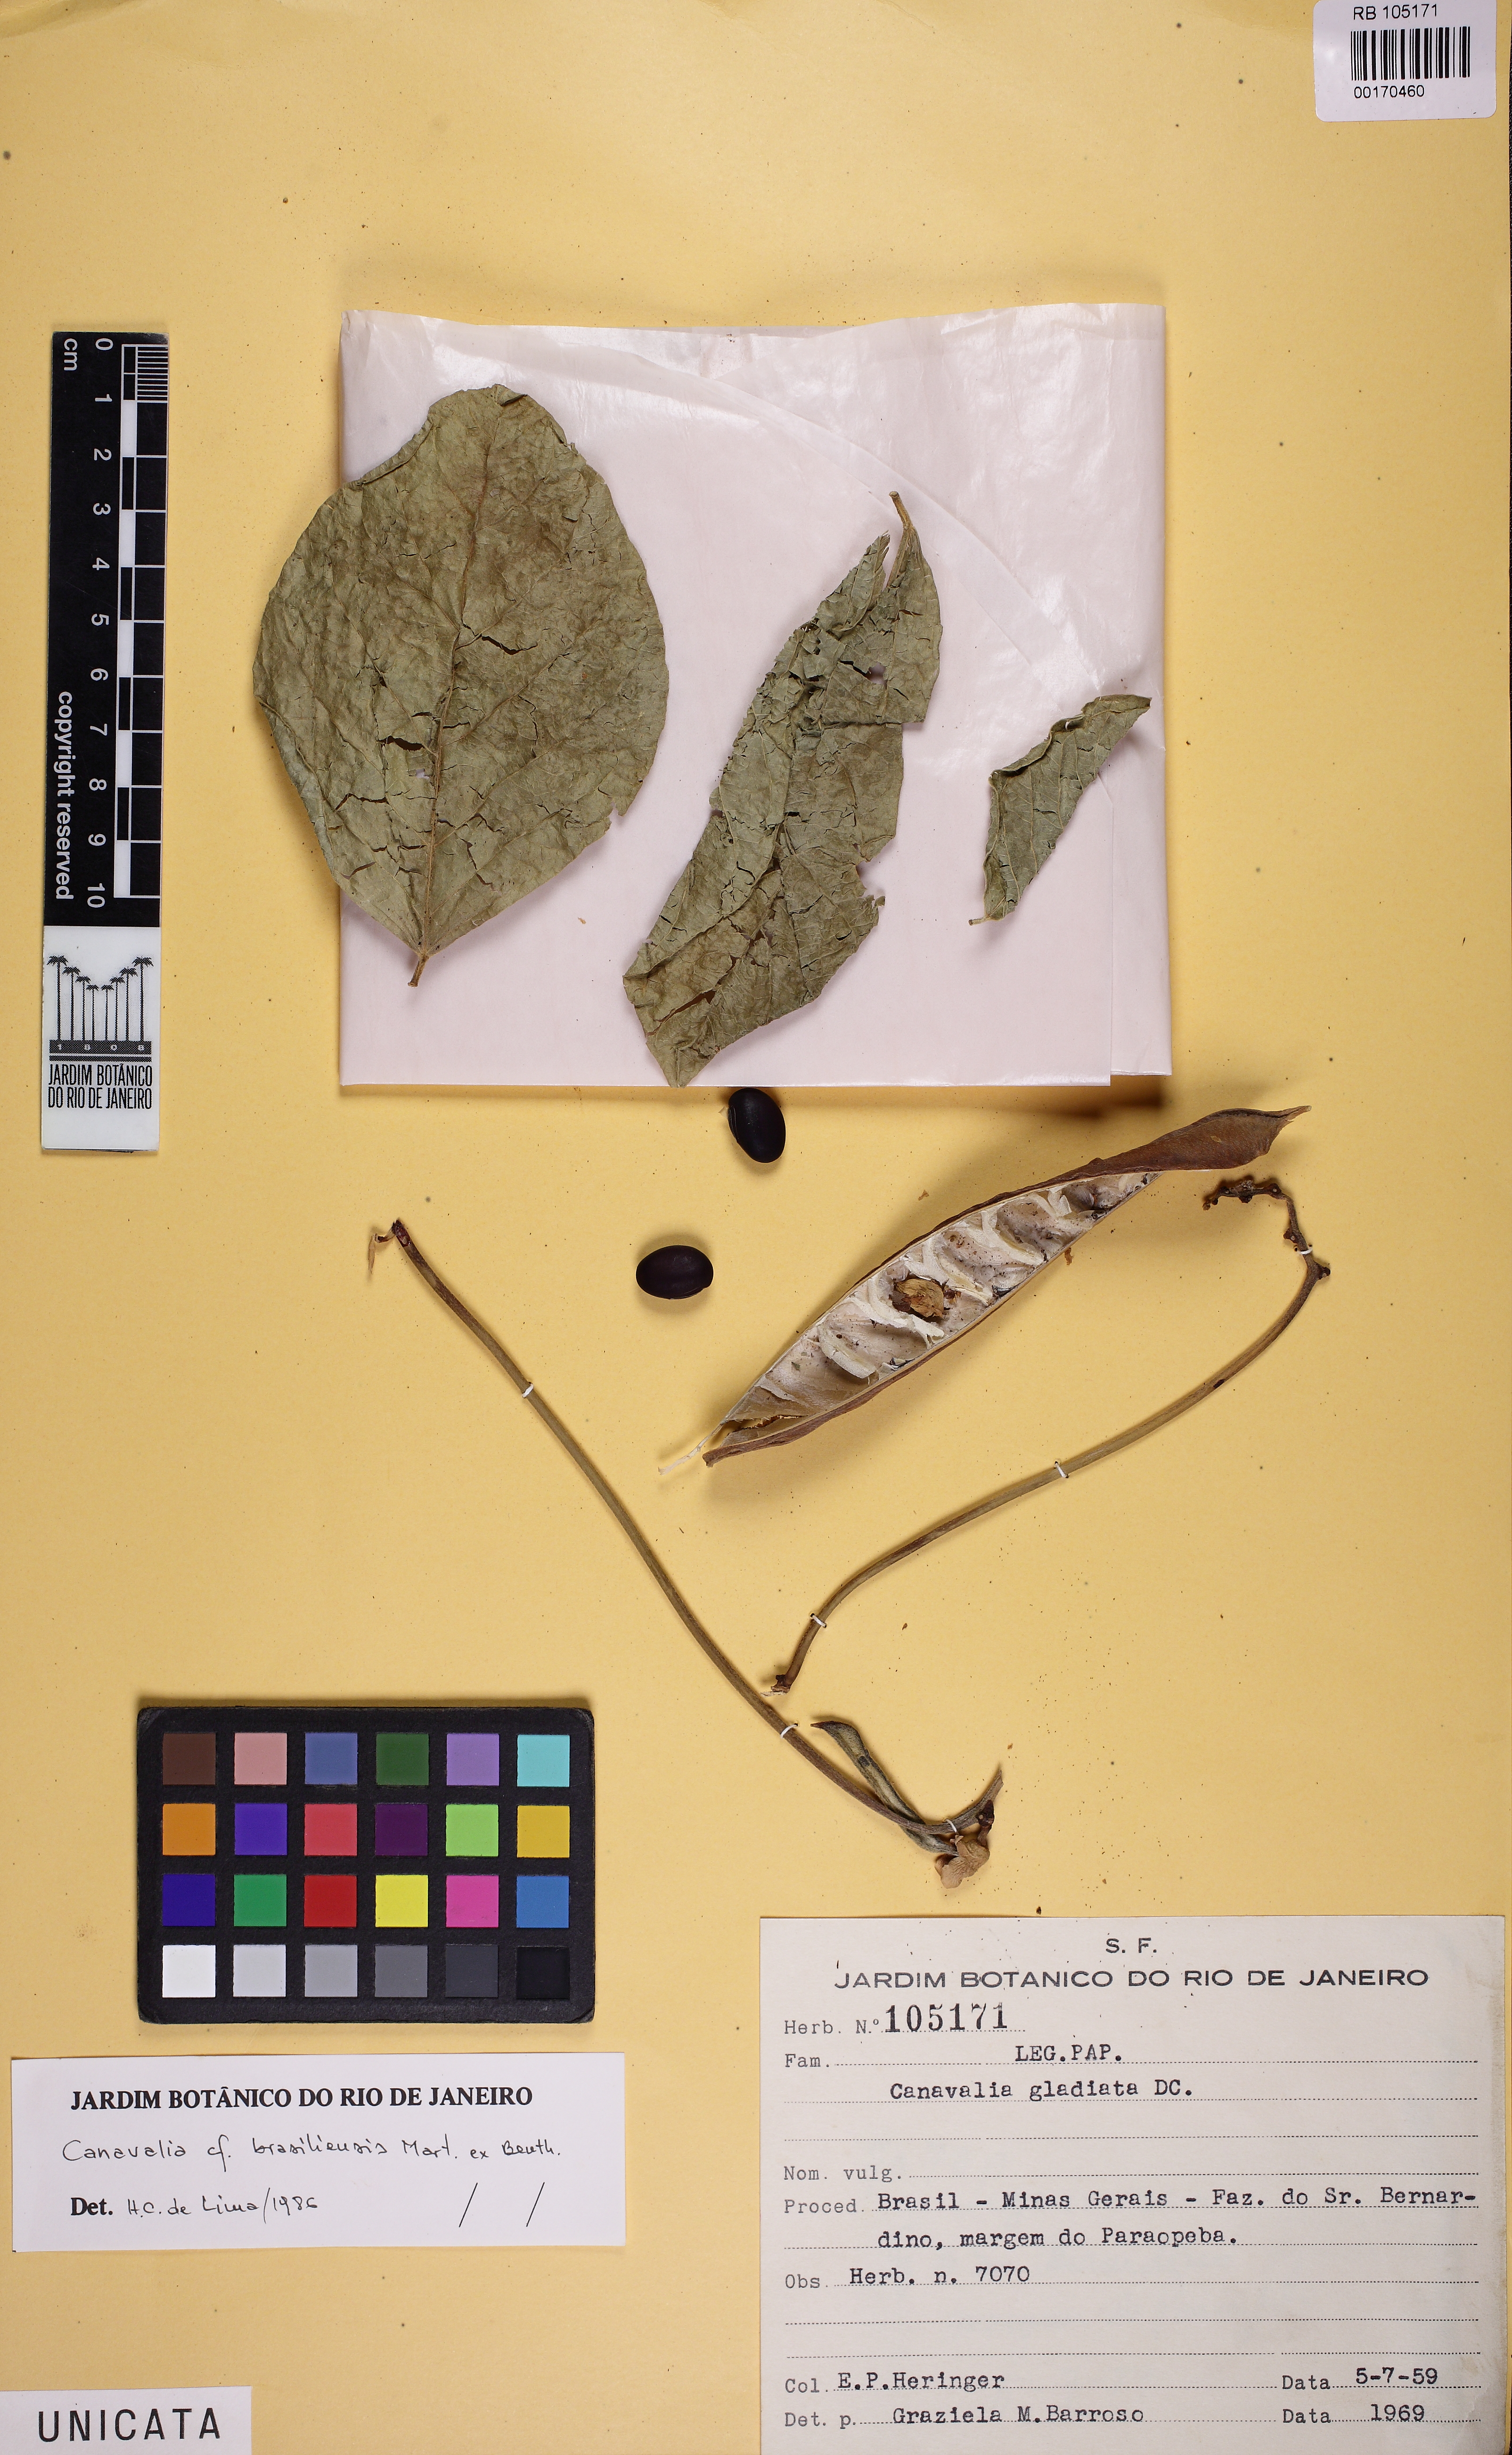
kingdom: Plantae
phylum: Tracheophyta
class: Magnoliopsida
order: Fabales
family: Fabaceae
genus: Canavalia
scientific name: Canavalia brasiliensis
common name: Barbicou-bean
